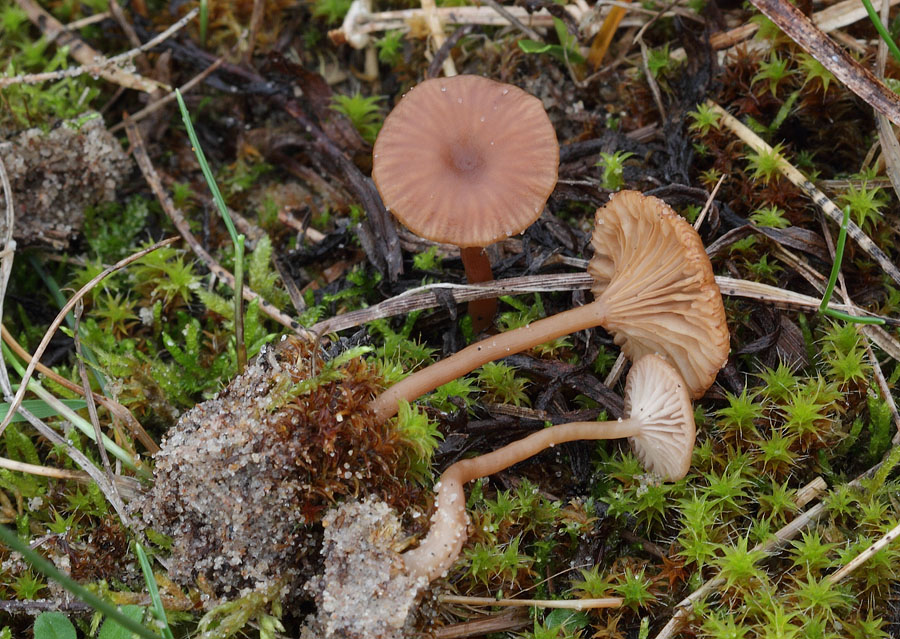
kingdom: Fungi
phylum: Basidiomycota
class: Agaricomycetes
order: Agaricales
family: Tricholomataceae
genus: Omphalina
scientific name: Omphalina pyxidata
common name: rødbrun navlehat
